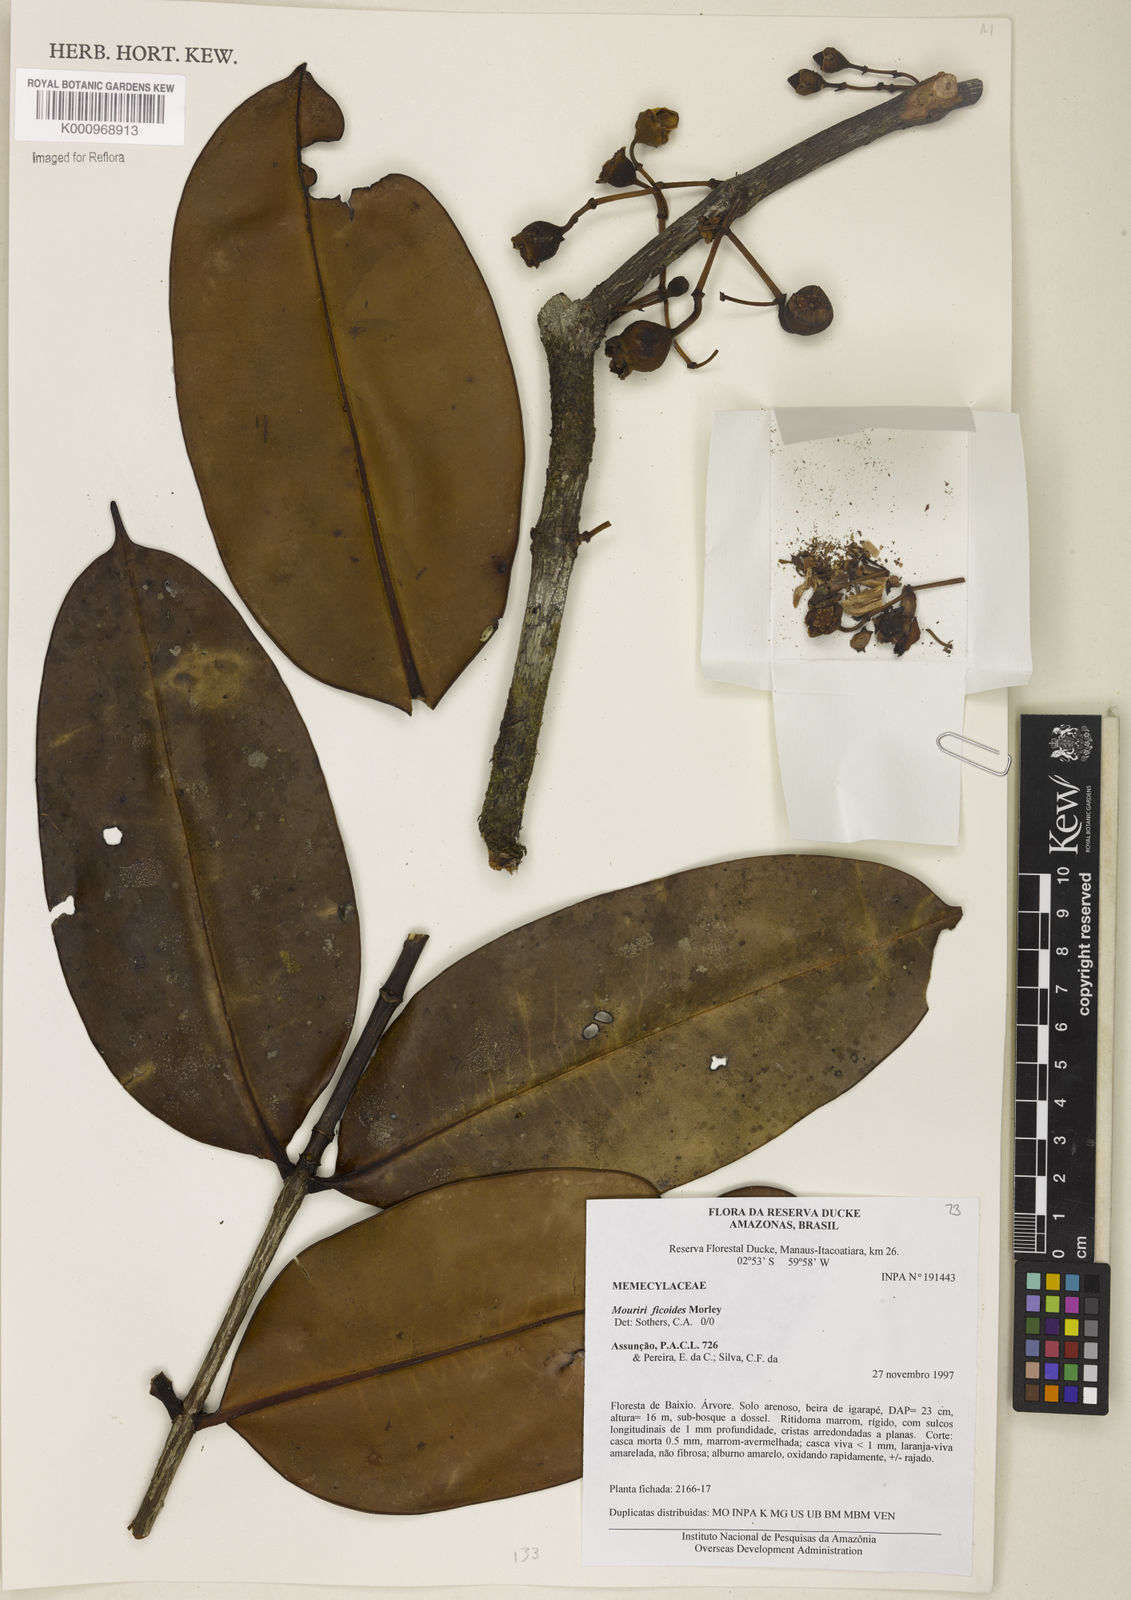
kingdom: Plantae
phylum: Tracheophyta
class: Magnoliopsida
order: Myrtales
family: Melastomataceae
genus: Mouriri
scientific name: Mouriri ficoides
